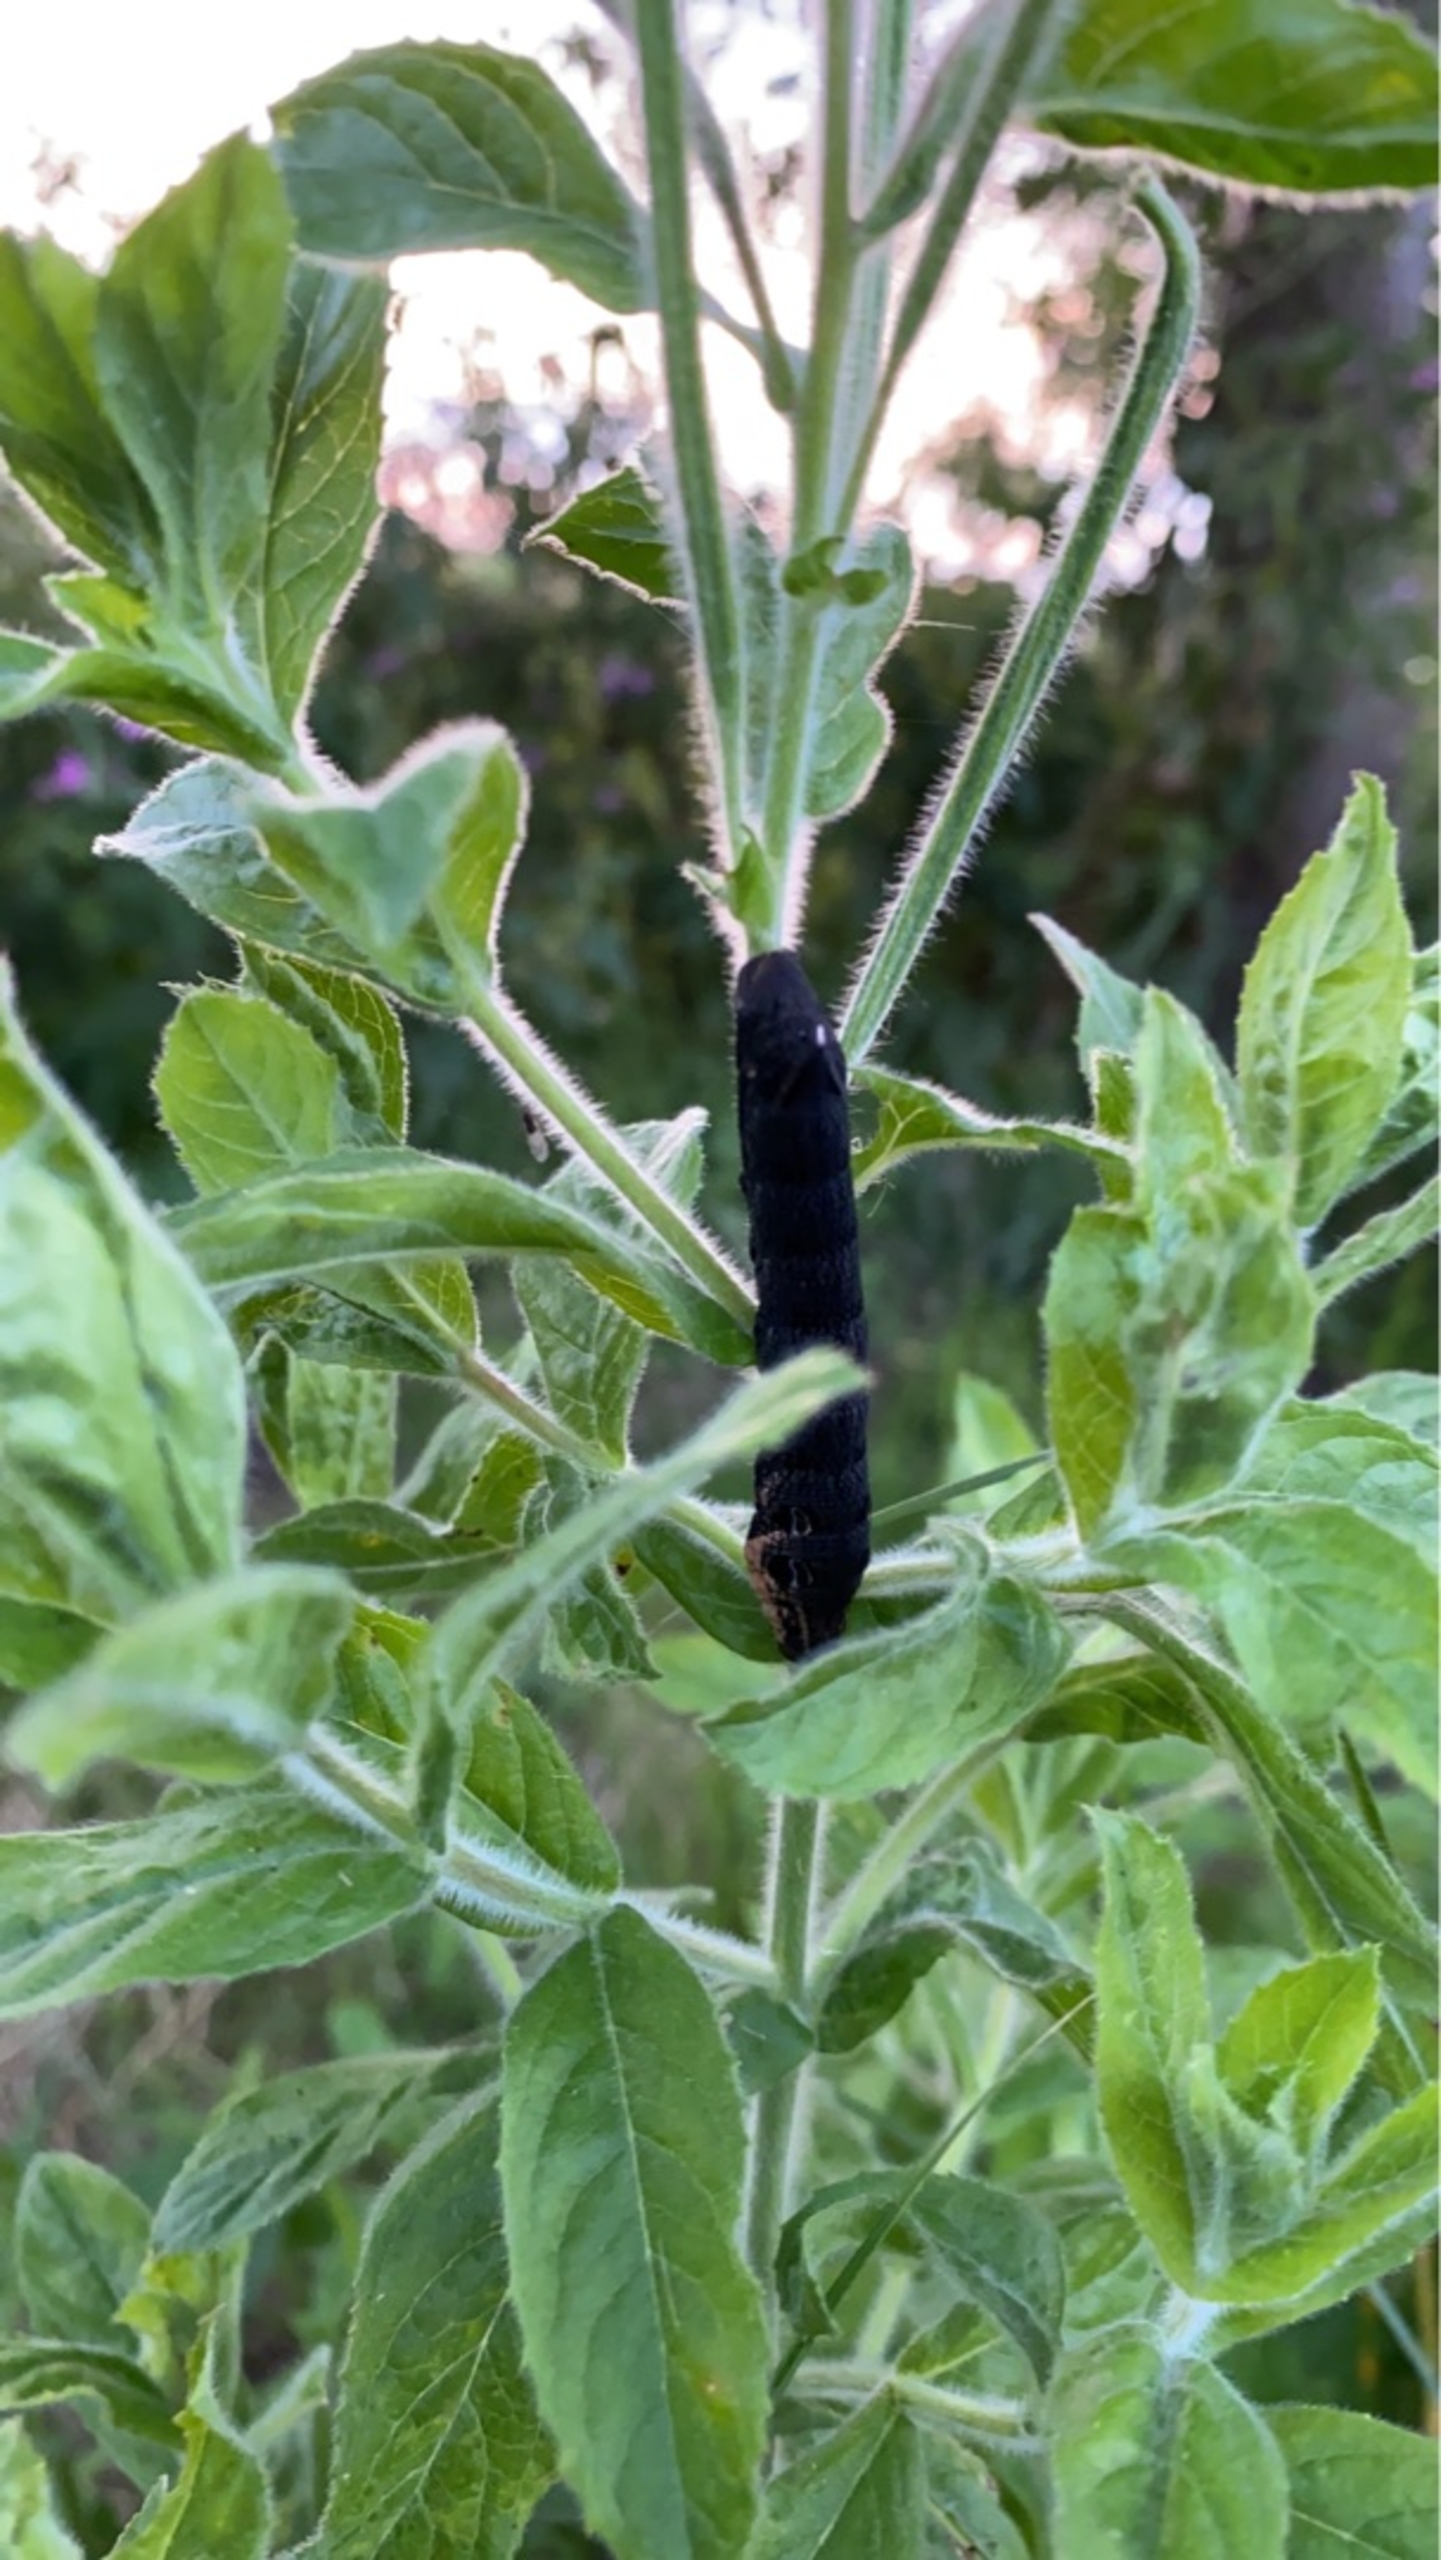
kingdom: Animalia
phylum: Arthropoda
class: Insecta
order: Lepidoptera
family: Sphingidae
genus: Deilephila
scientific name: Deilephila elpenor
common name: Dueurtsværmer
